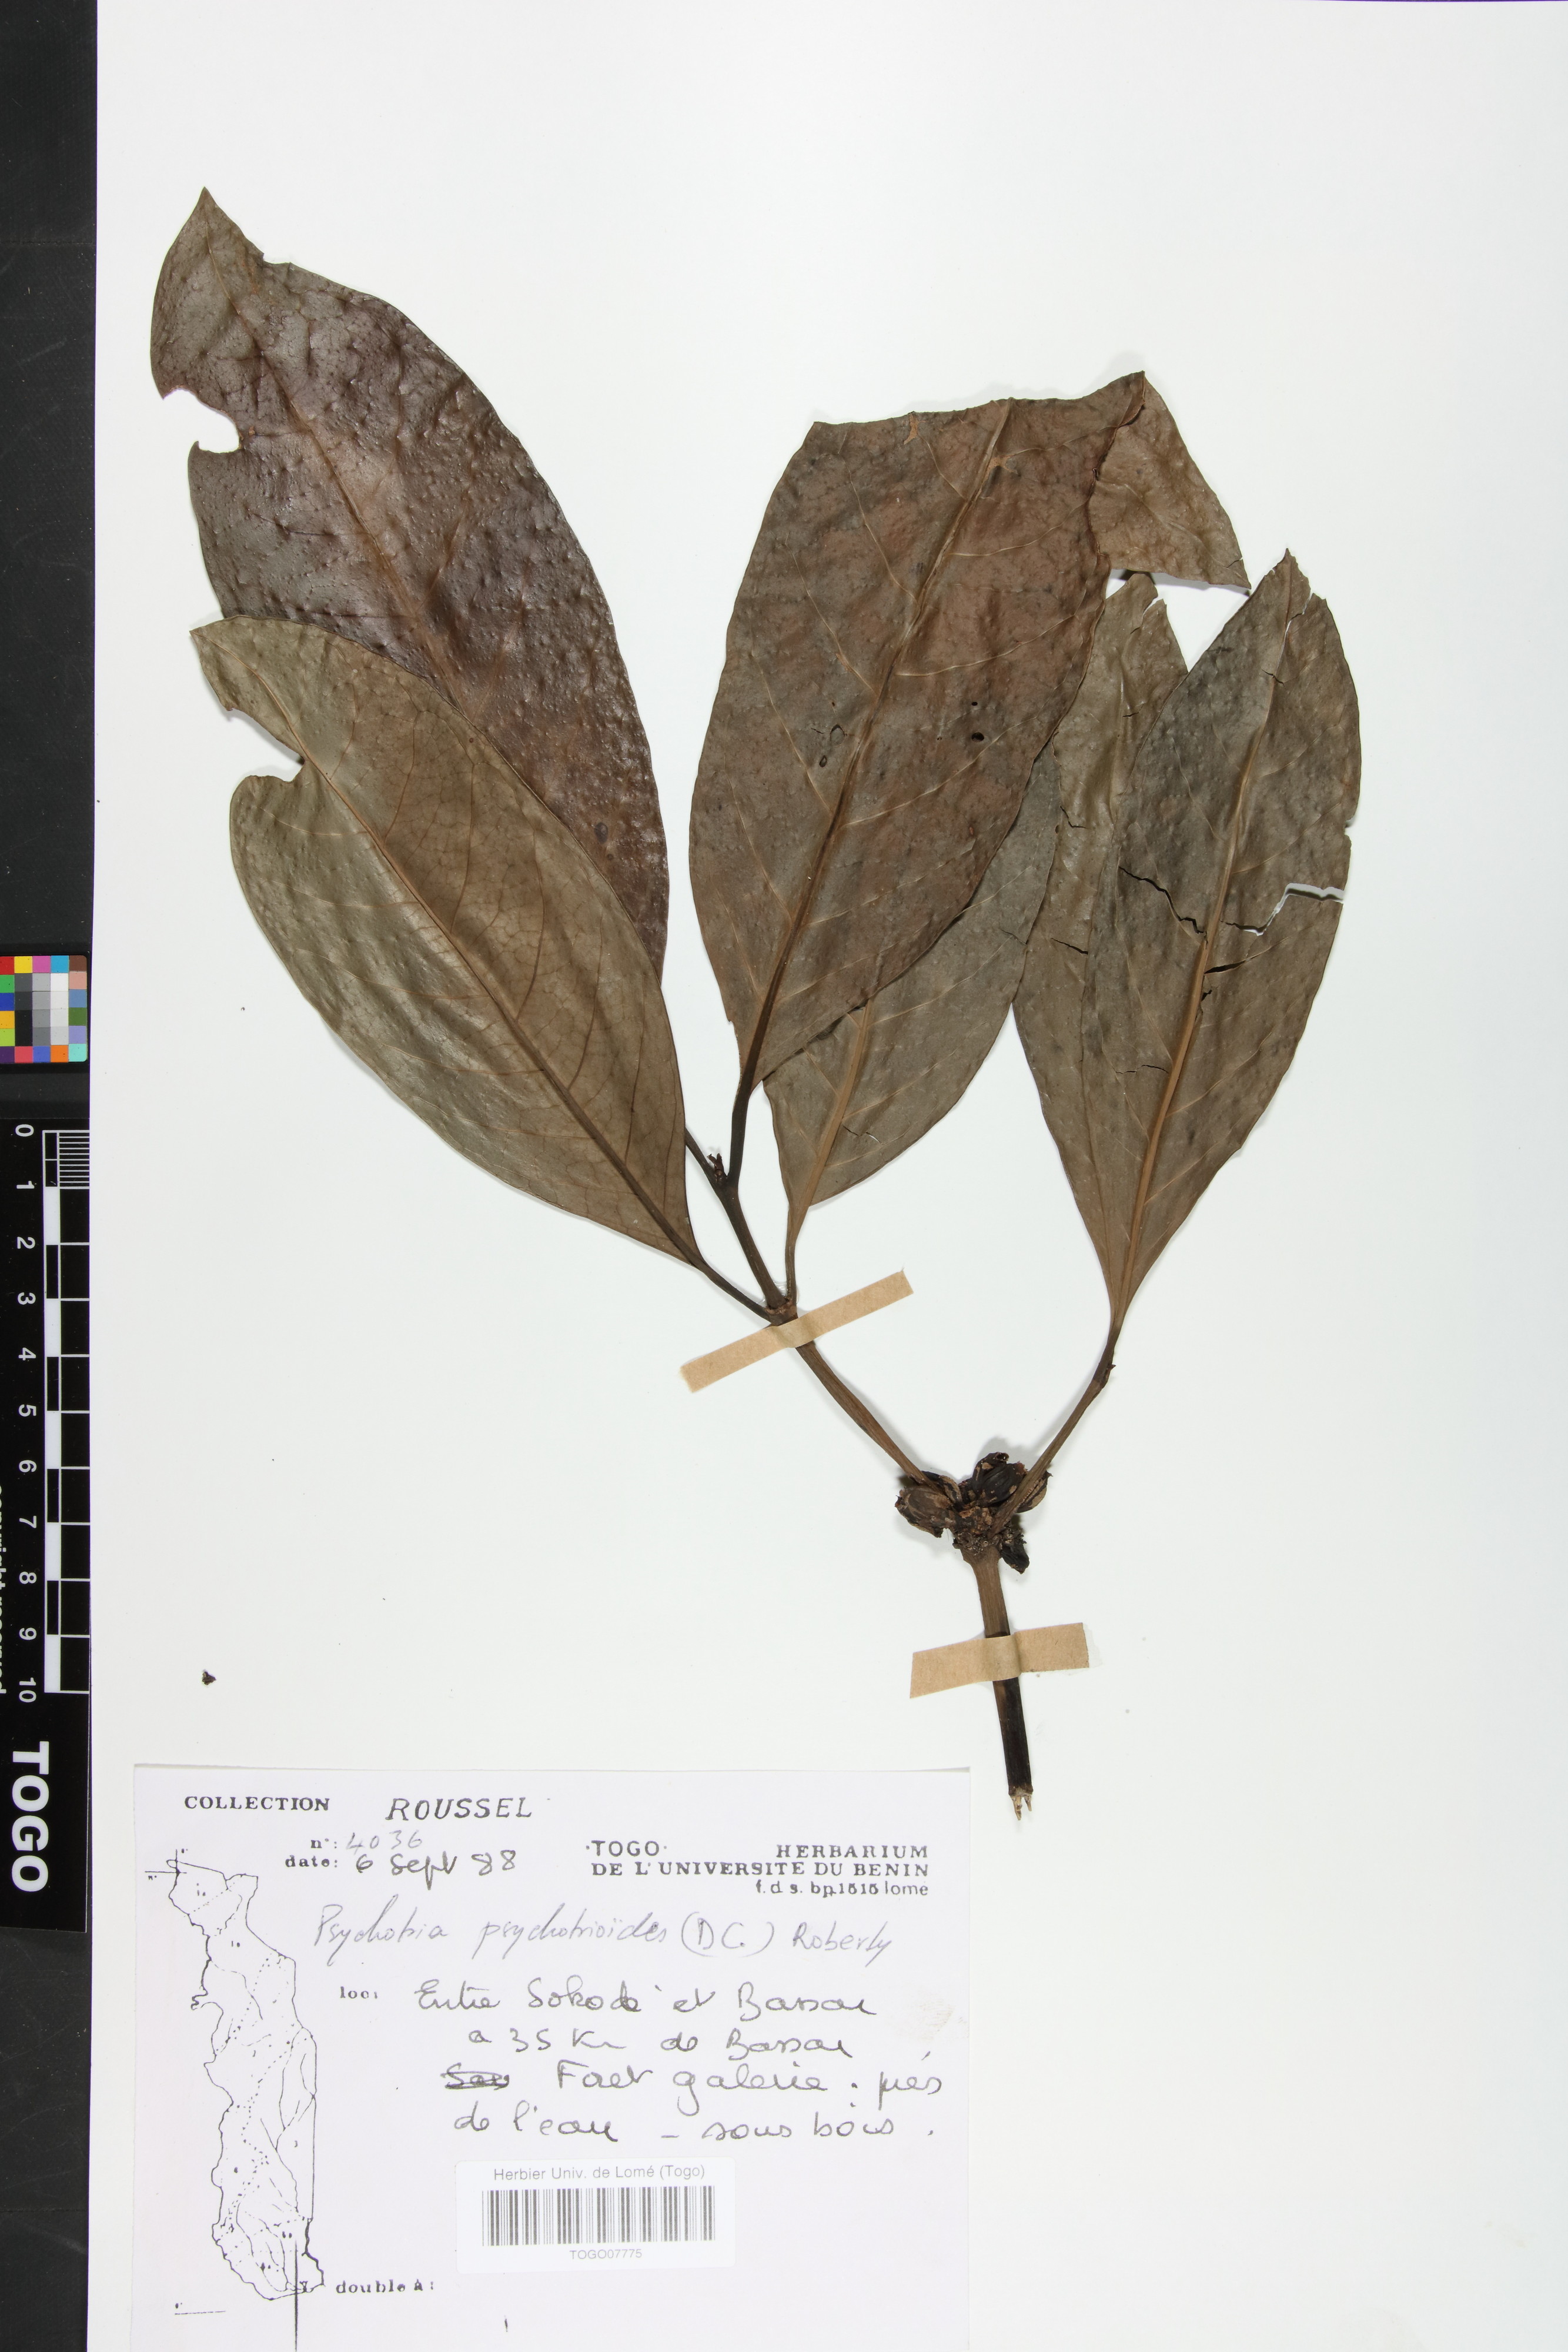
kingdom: Plantae
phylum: Tracheophyta
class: Magnoliopsida
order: Gentianales
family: Rubiaceae
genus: Psychotria
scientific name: Psychotria psychotrioides
